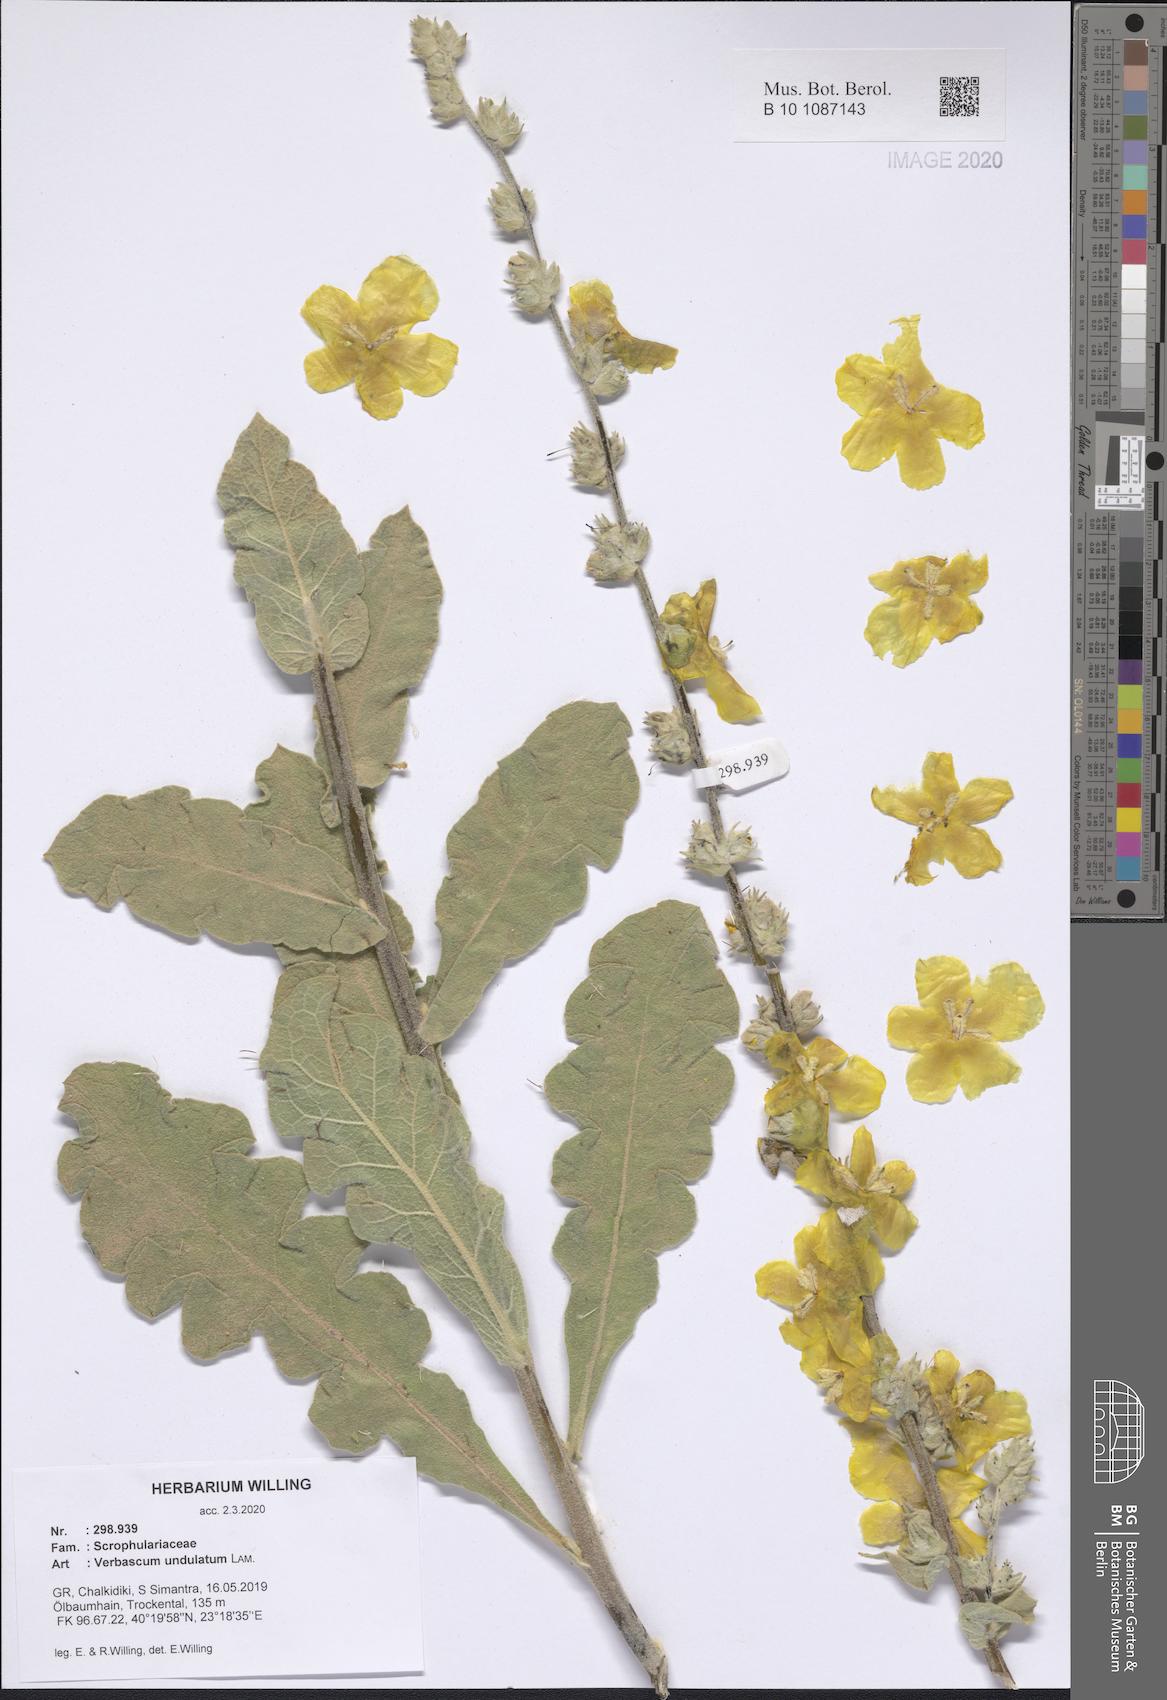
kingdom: Plantae
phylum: Tracheophyta
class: Magnoliopsida
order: Lamiales
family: Scrophulariaceae
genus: Verbascum
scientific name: Verbascum undulatum
